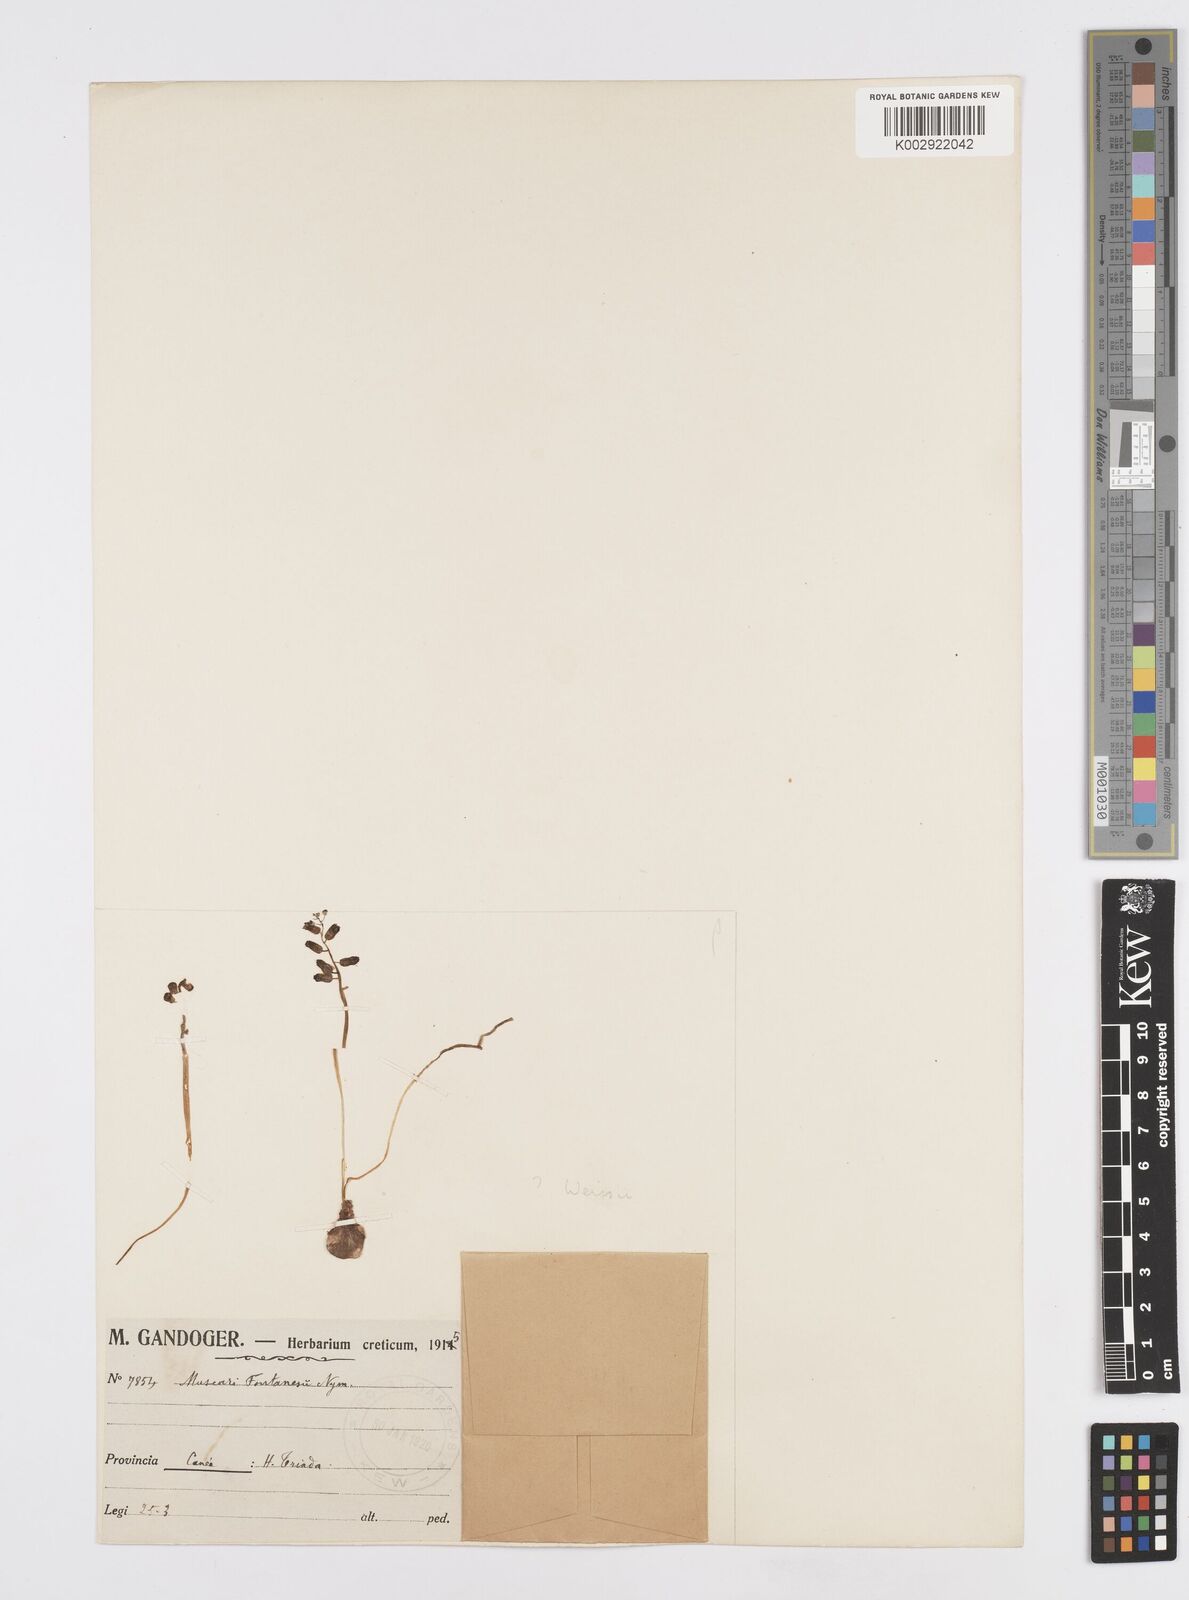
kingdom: Animalia
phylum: Mollusca
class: Cephalopoda
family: Neocomitidae
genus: Leopoldia
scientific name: Leopoldia
